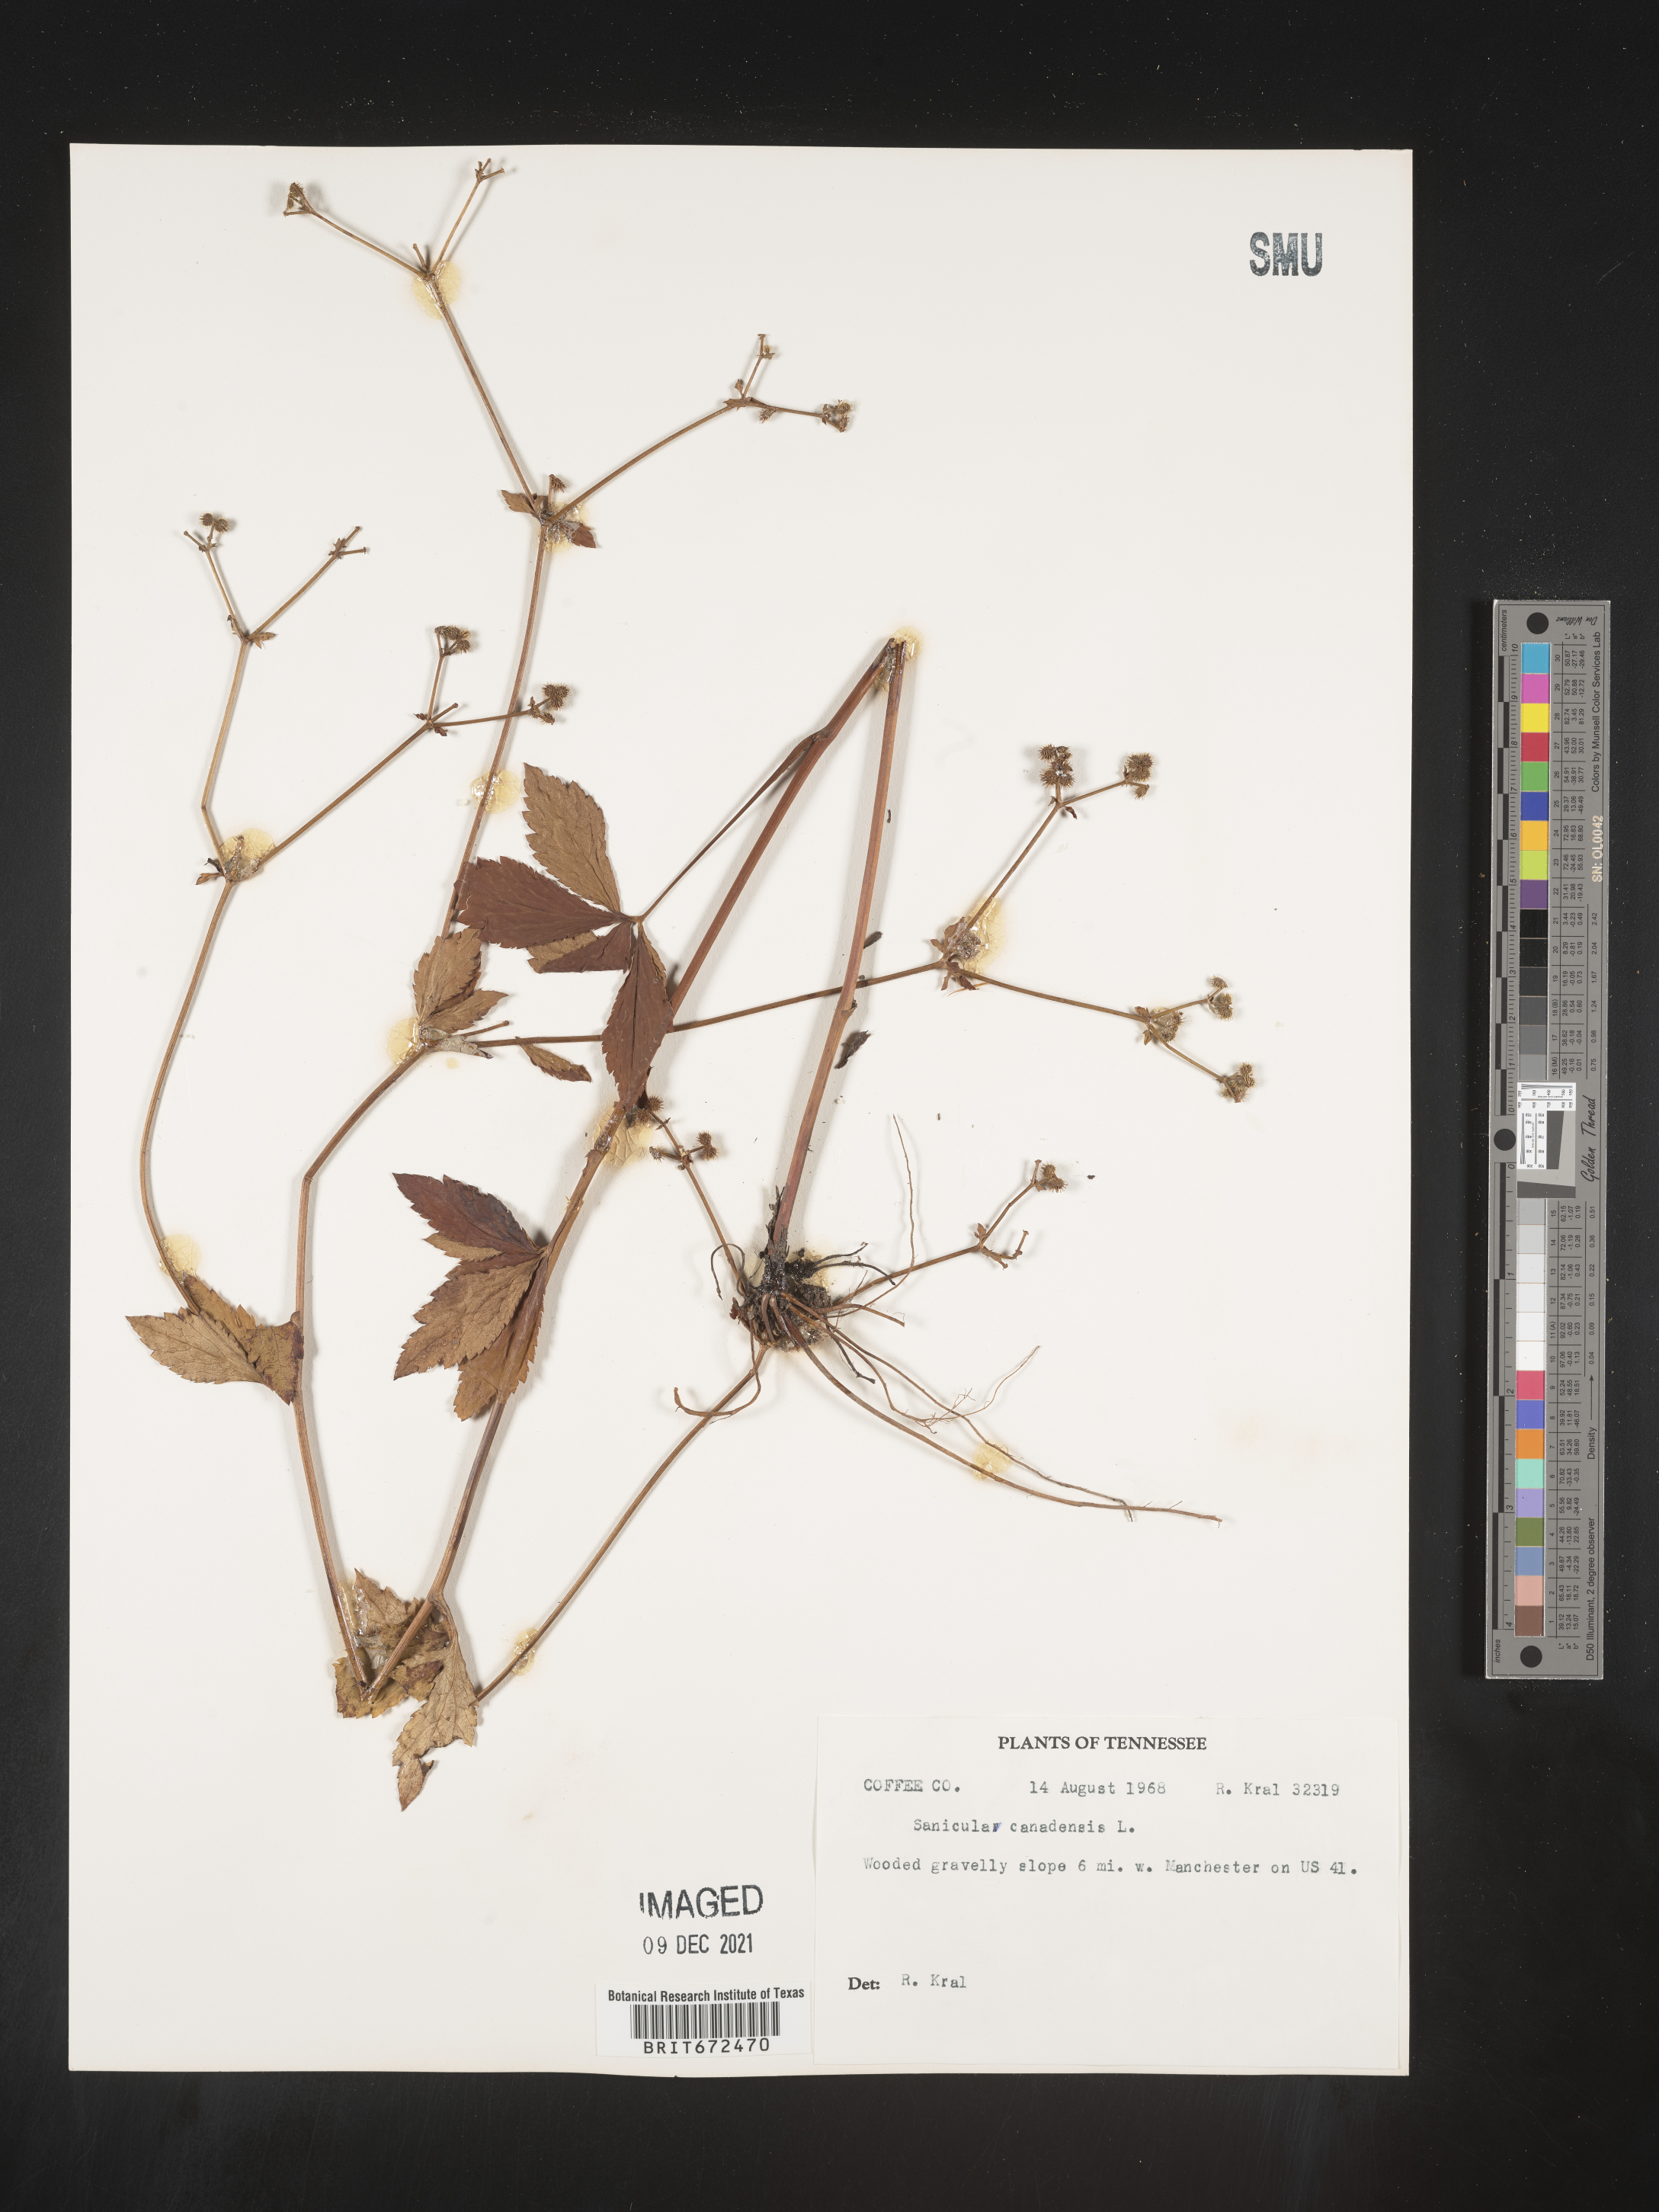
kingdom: Plantae
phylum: Tracheophyta
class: Magnoliopsida
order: Apiales
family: Apiaceae
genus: Sanicula
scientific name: Sanicula canadensis
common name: Canada sanicle
